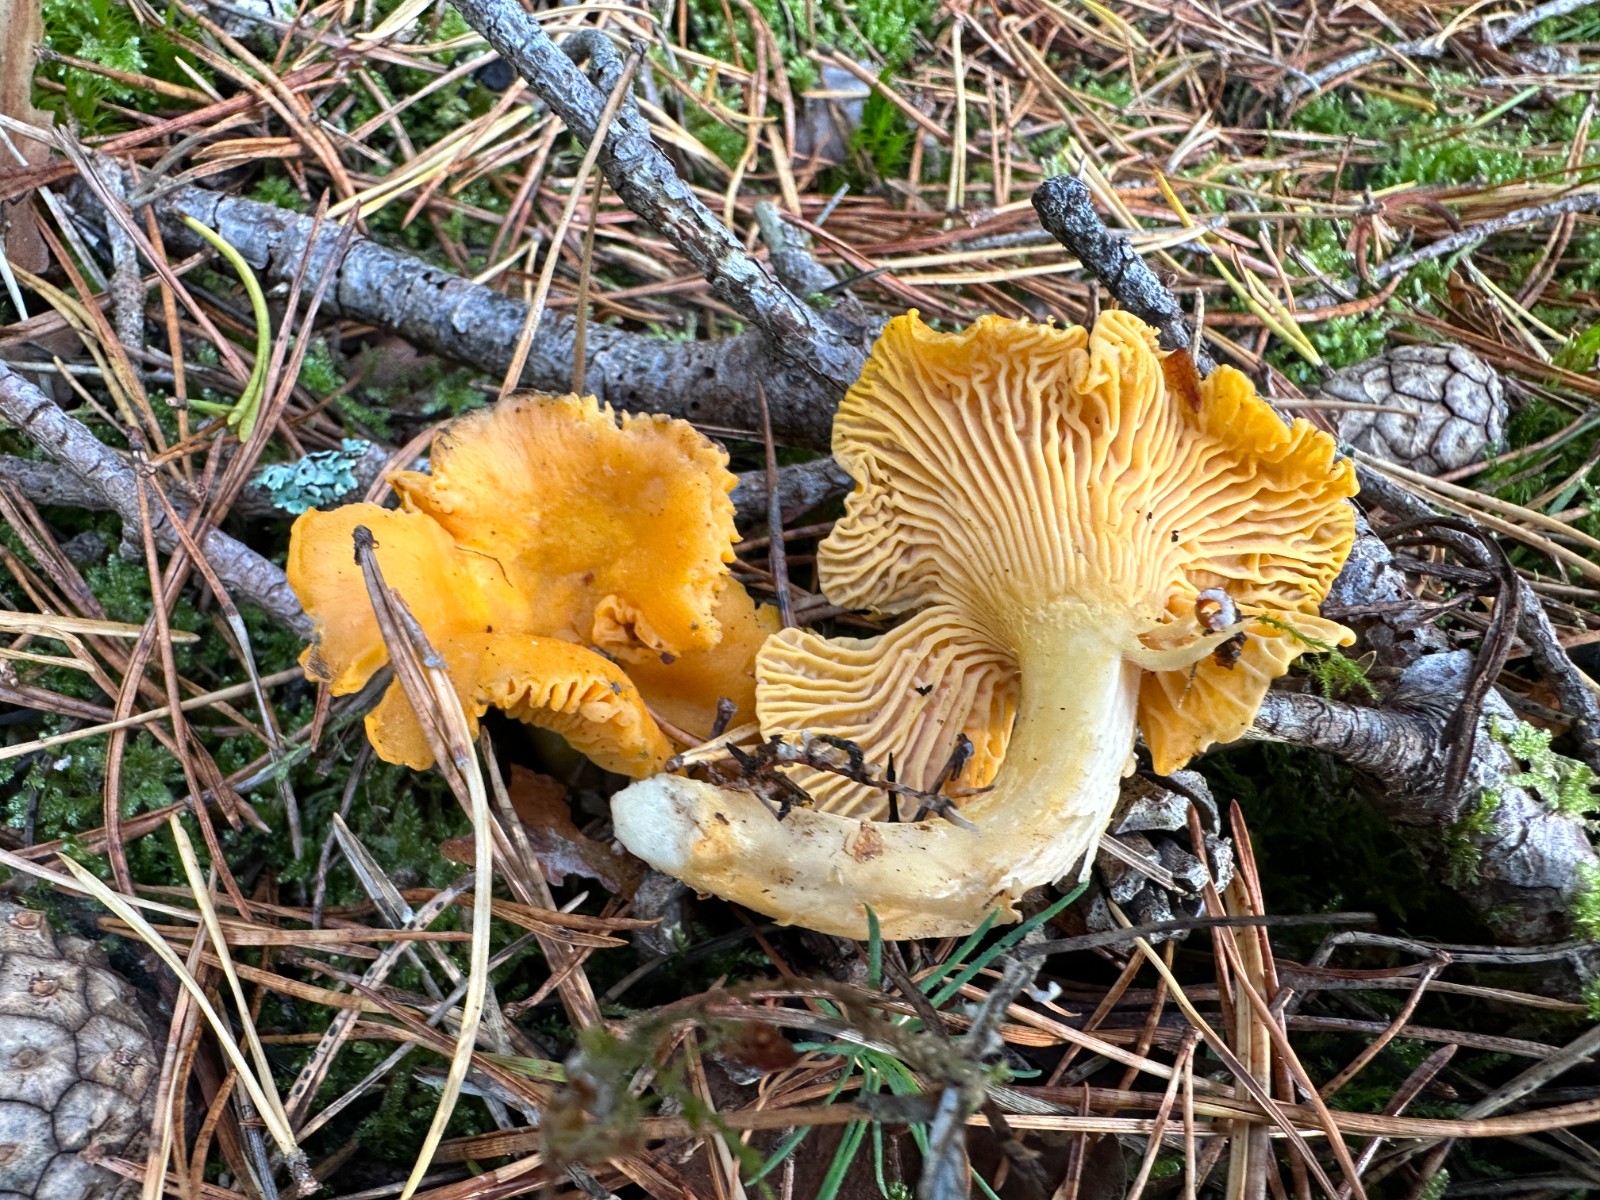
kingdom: Fungi
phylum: Basidiomycota
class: Agaricomycetes
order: Cantharellales
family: Hydnaceae
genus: Cantharellus
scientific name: Cantharellus cibarius
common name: almindelig kantarel
